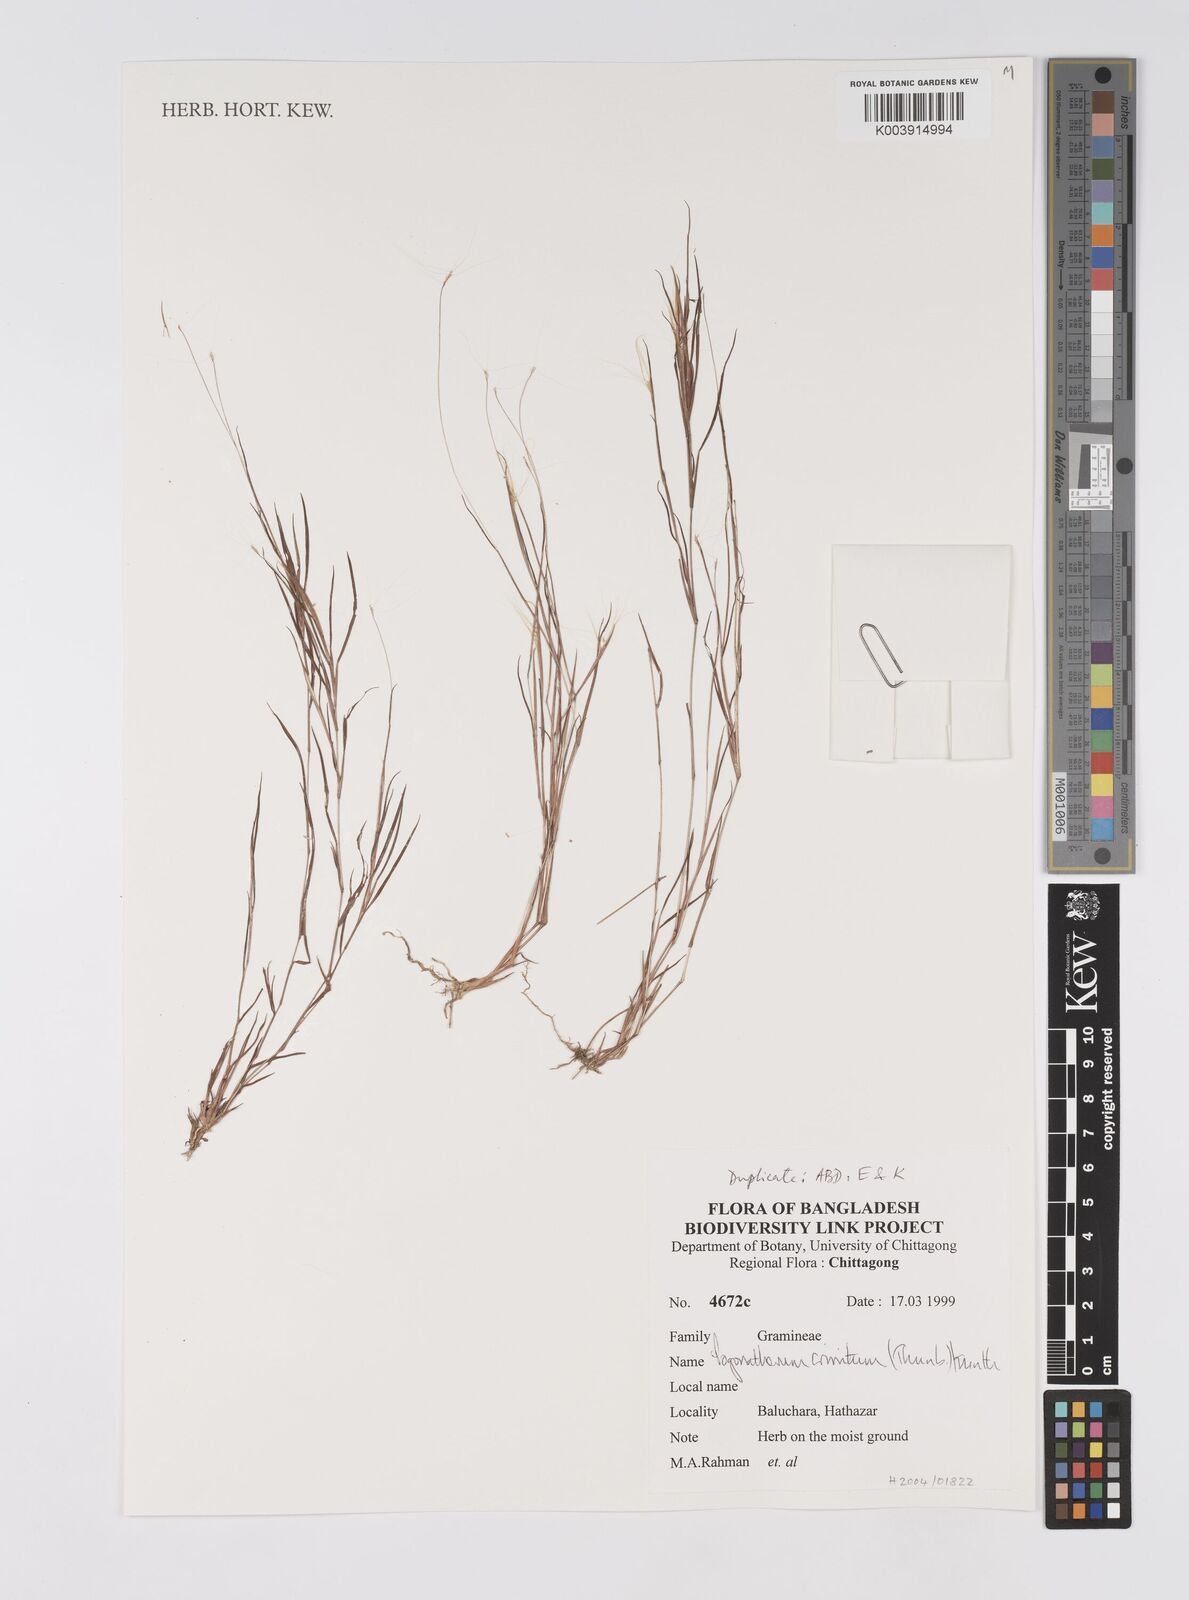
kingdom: Plantae
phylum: Tracheophyta
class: Liliopsida
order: Poales
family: Poaceae
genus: Pogonatherum
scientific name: Pogonatherum crinitum
